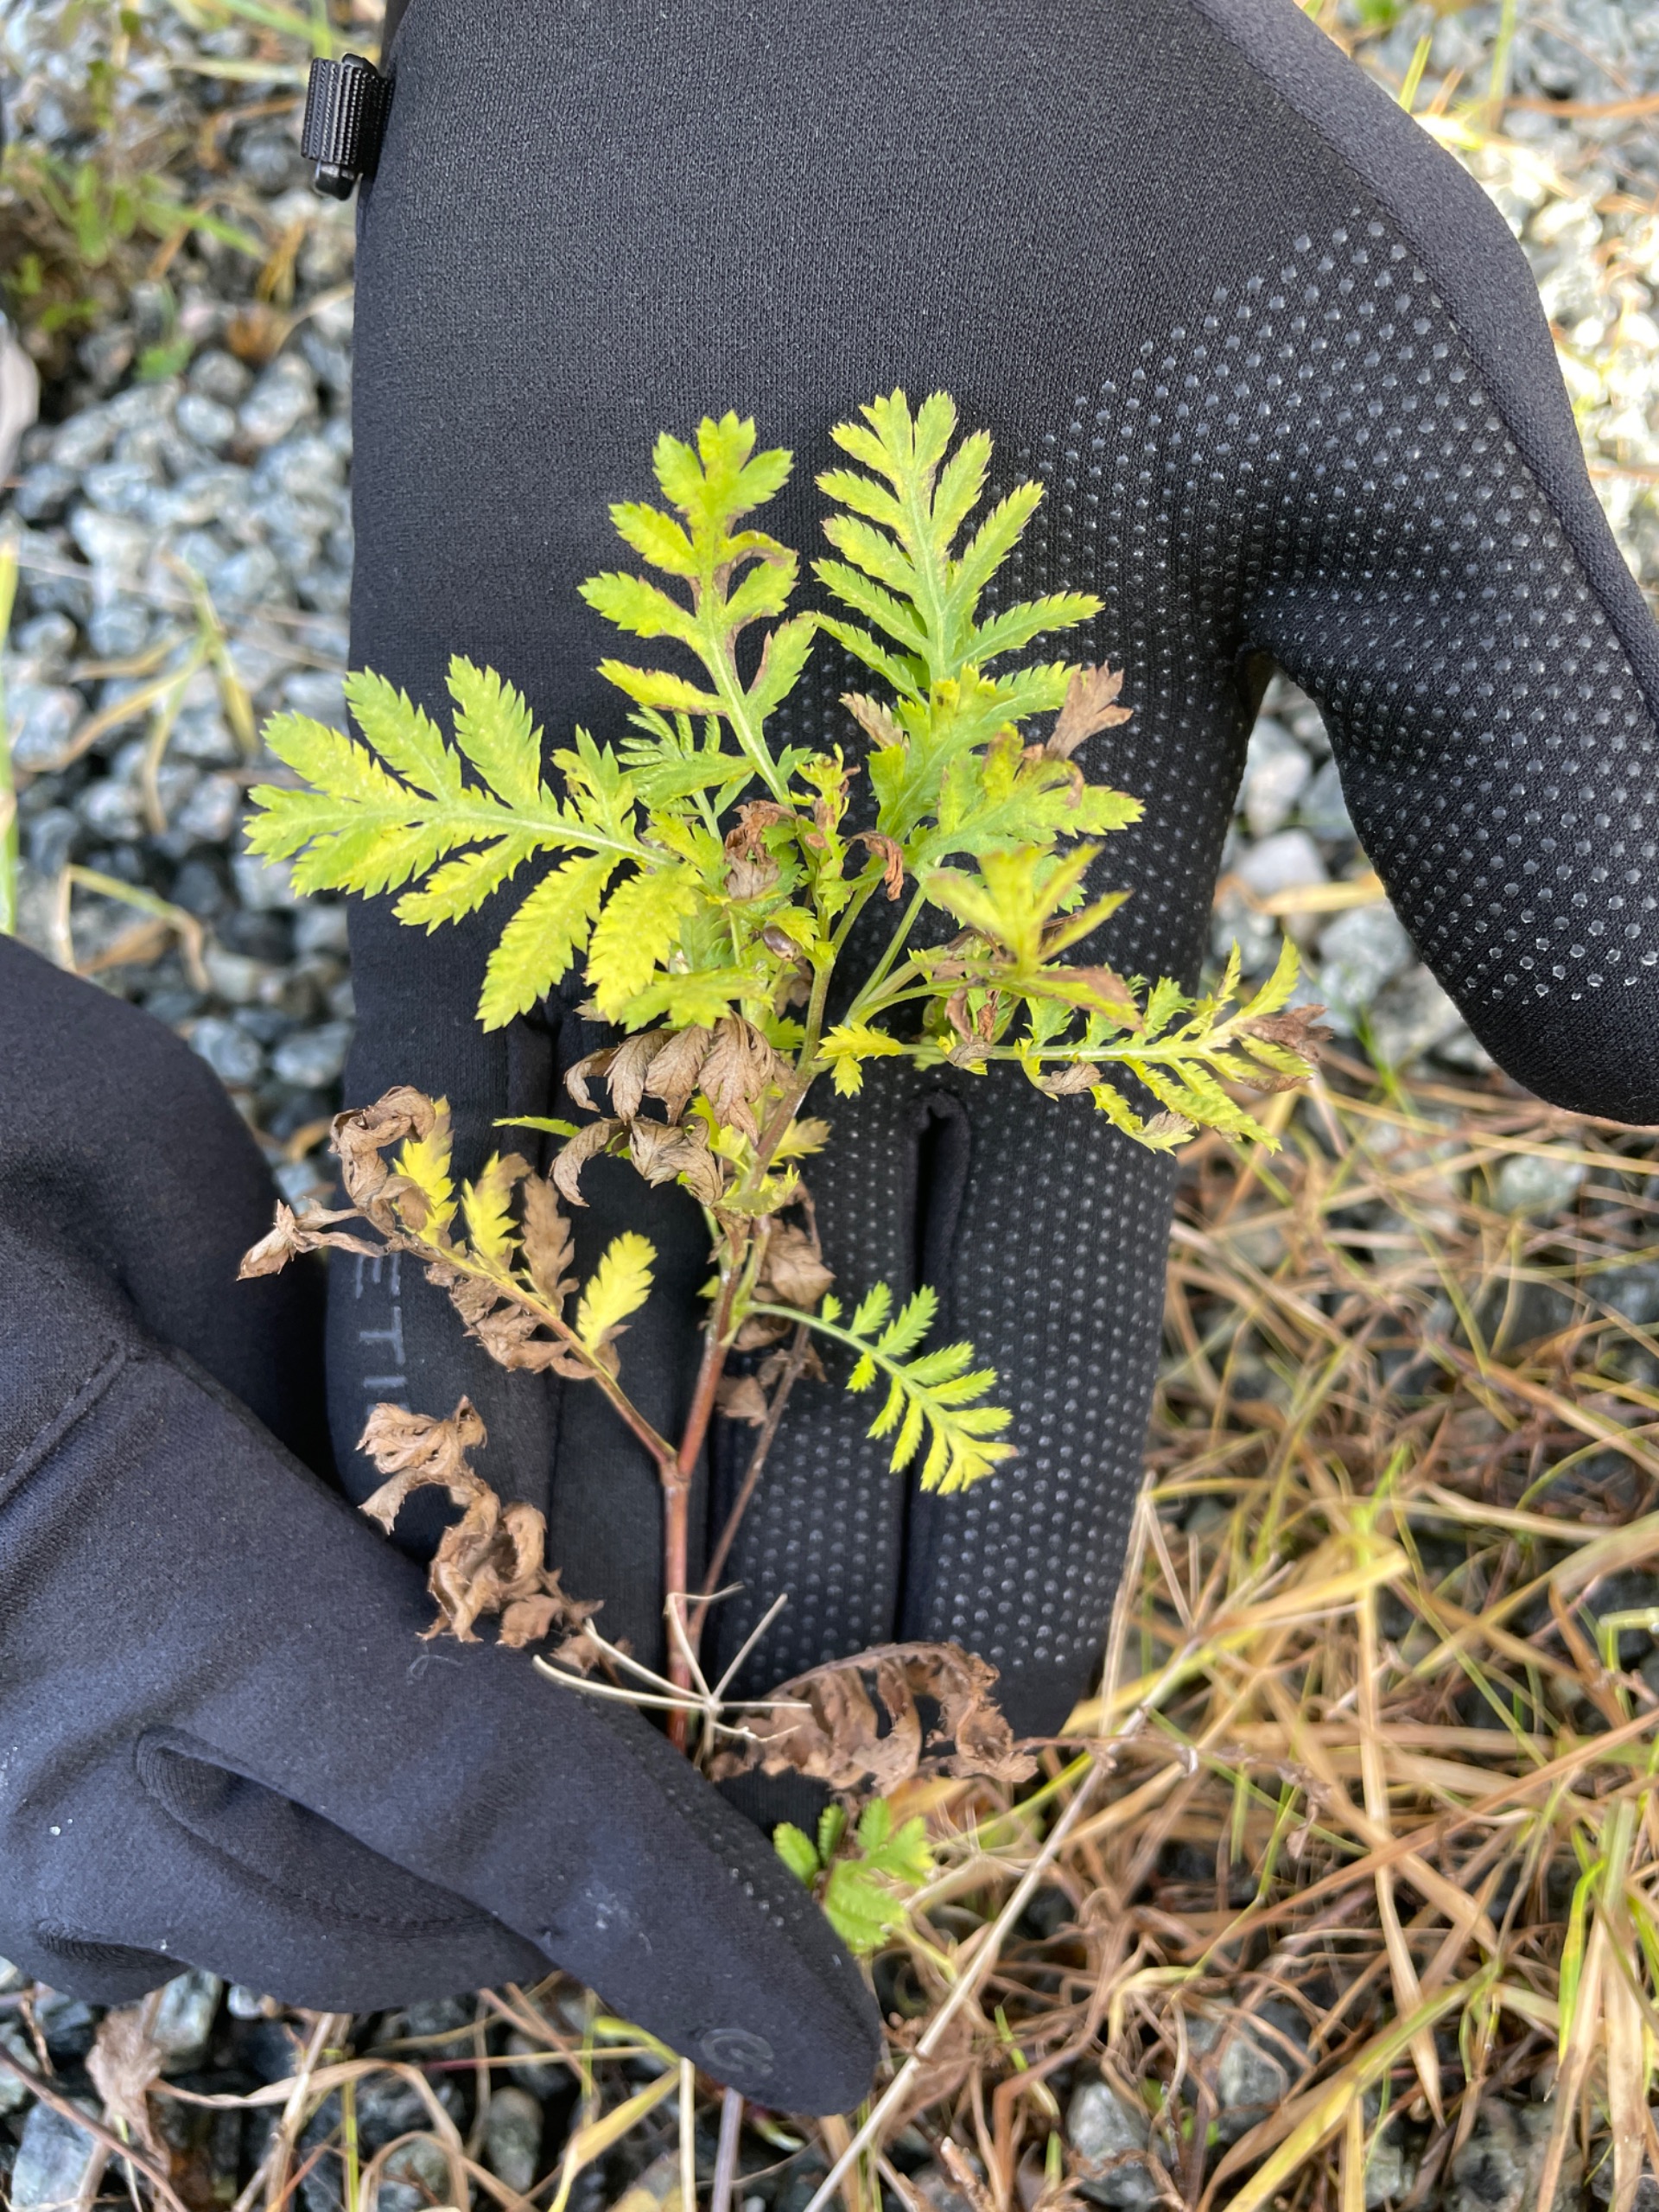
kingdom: Plantae
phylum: Tracheophyta
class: Magnoliopsida
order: Asterales
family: Asteraceae
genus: Tanacetum
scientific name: Tanacetum vulgare
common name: Rejnfan
